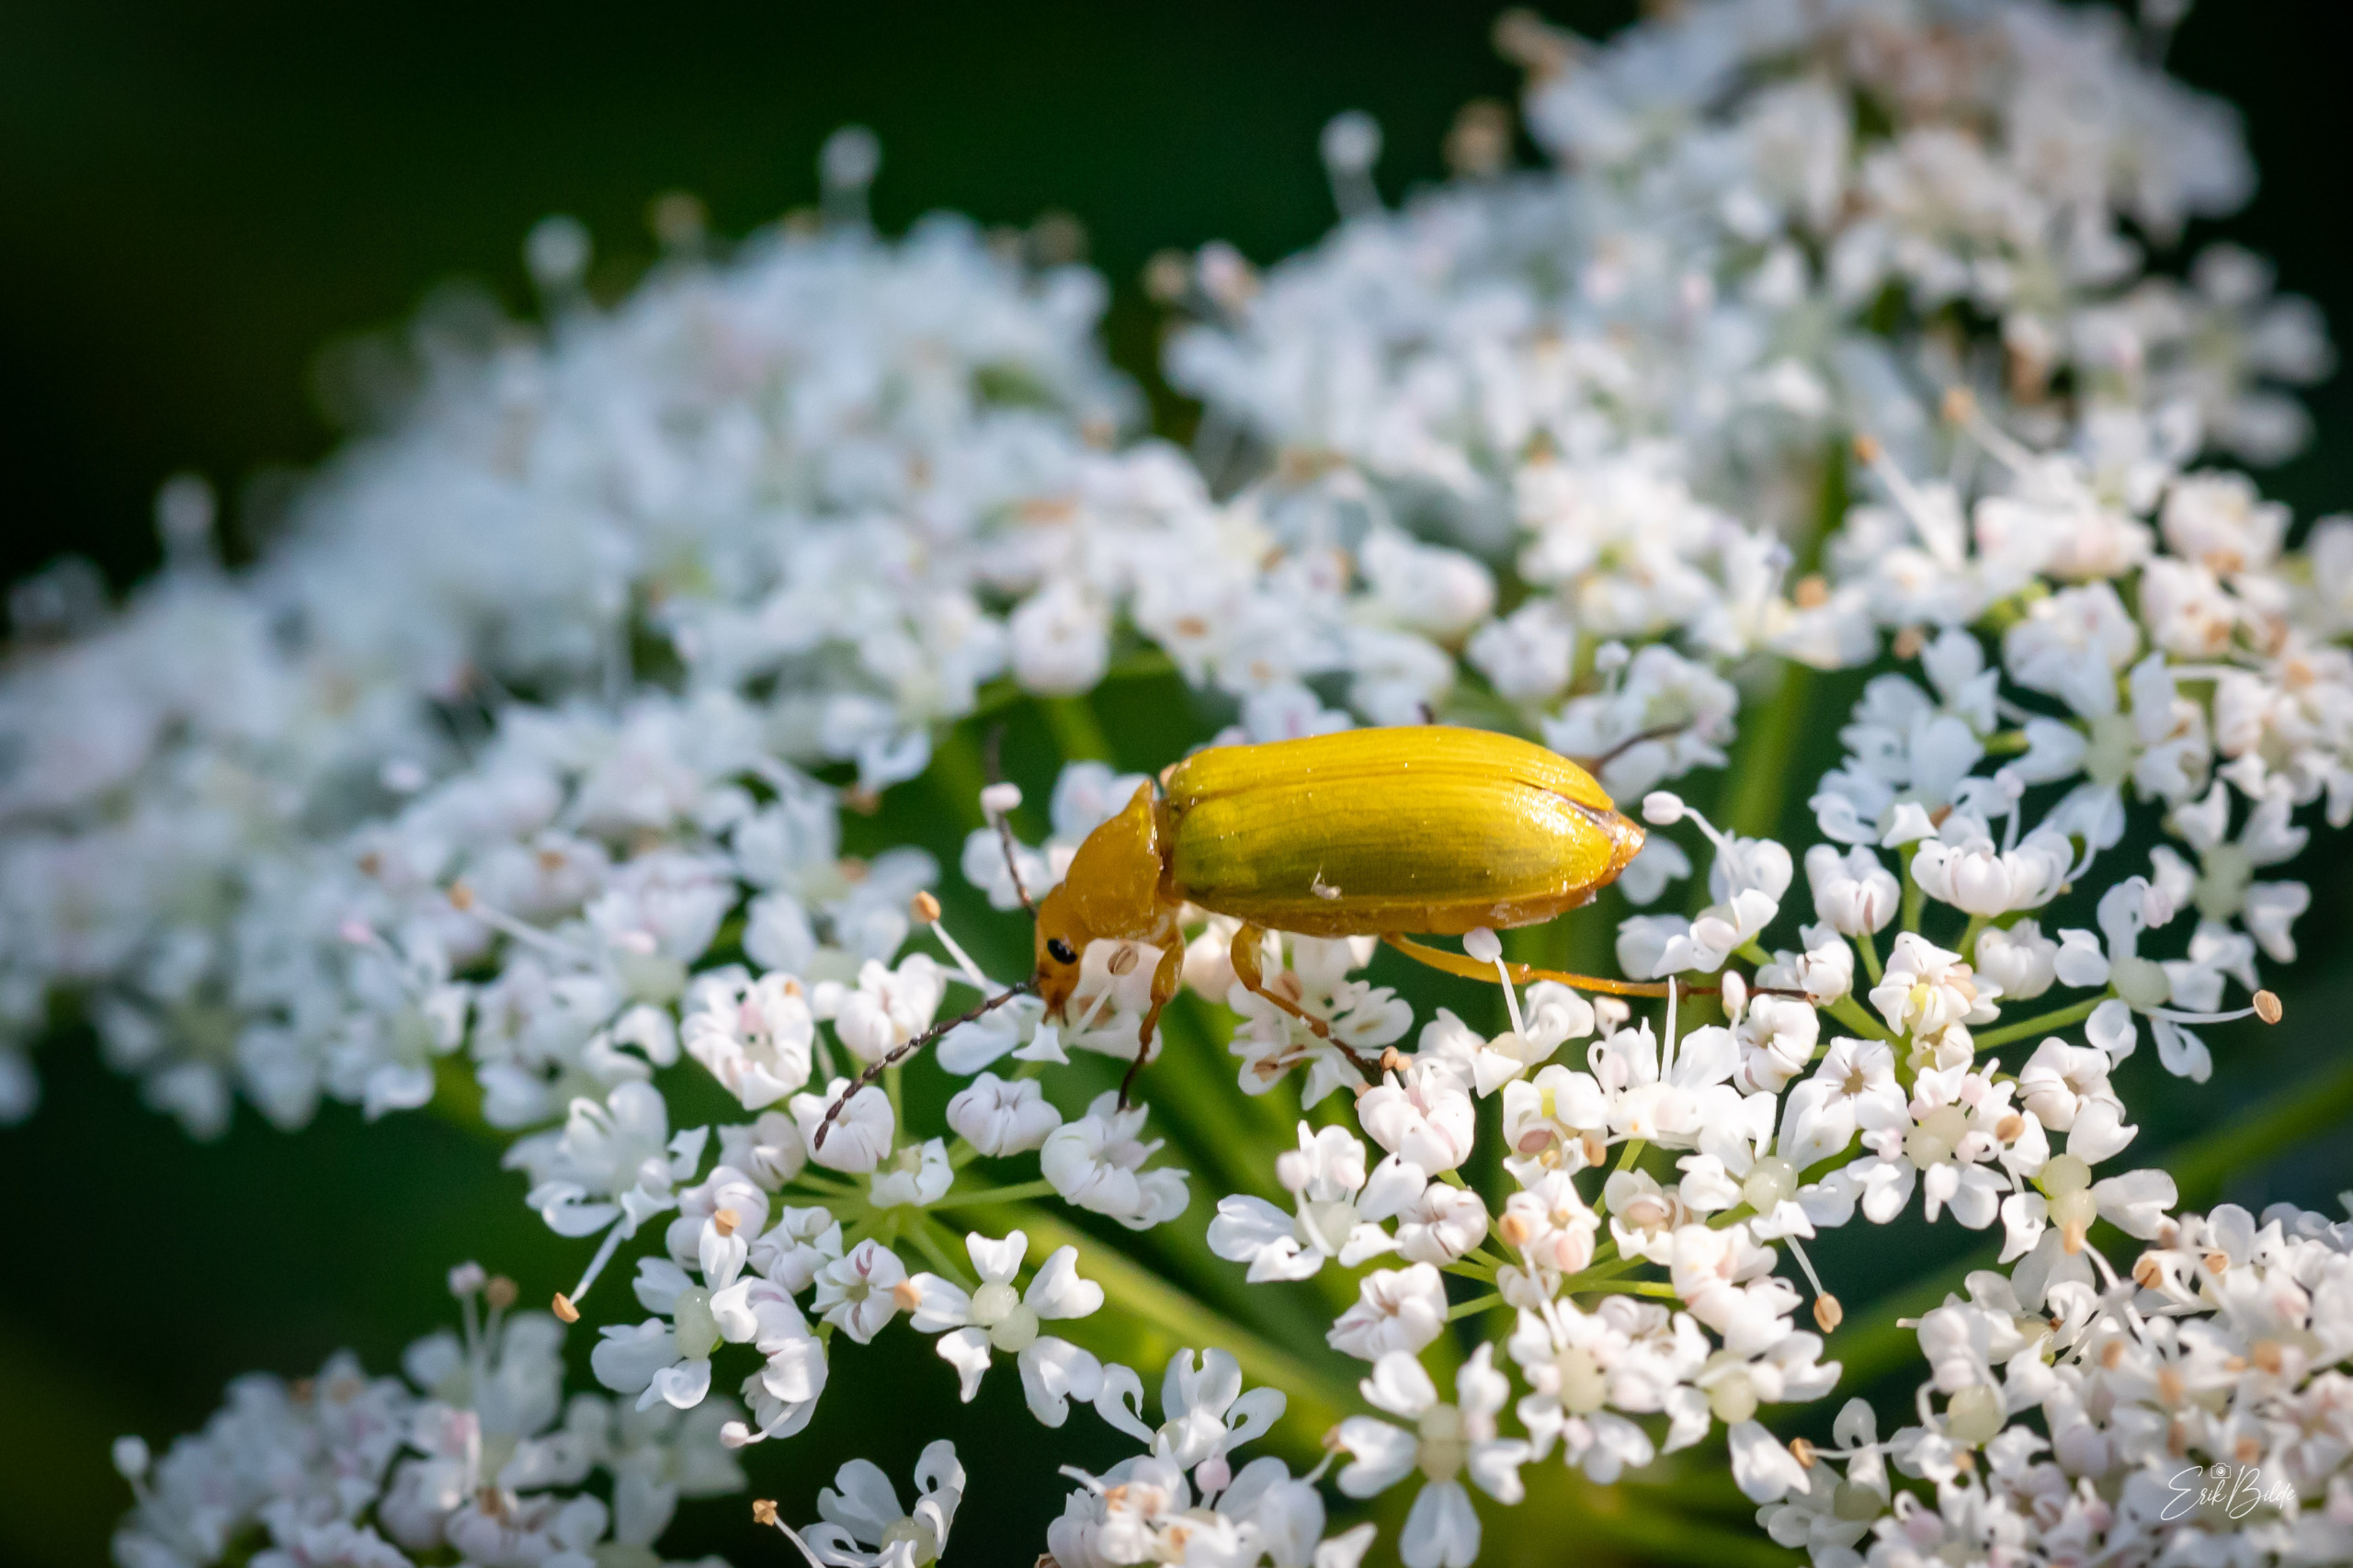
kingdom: Animalia
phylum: Arthropoda
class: Insecta
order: Coleoptera
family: Tenebrionidae
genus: Cteniopus
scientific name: Cteniopus sulphureus
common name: Svovlgul skyggebille
